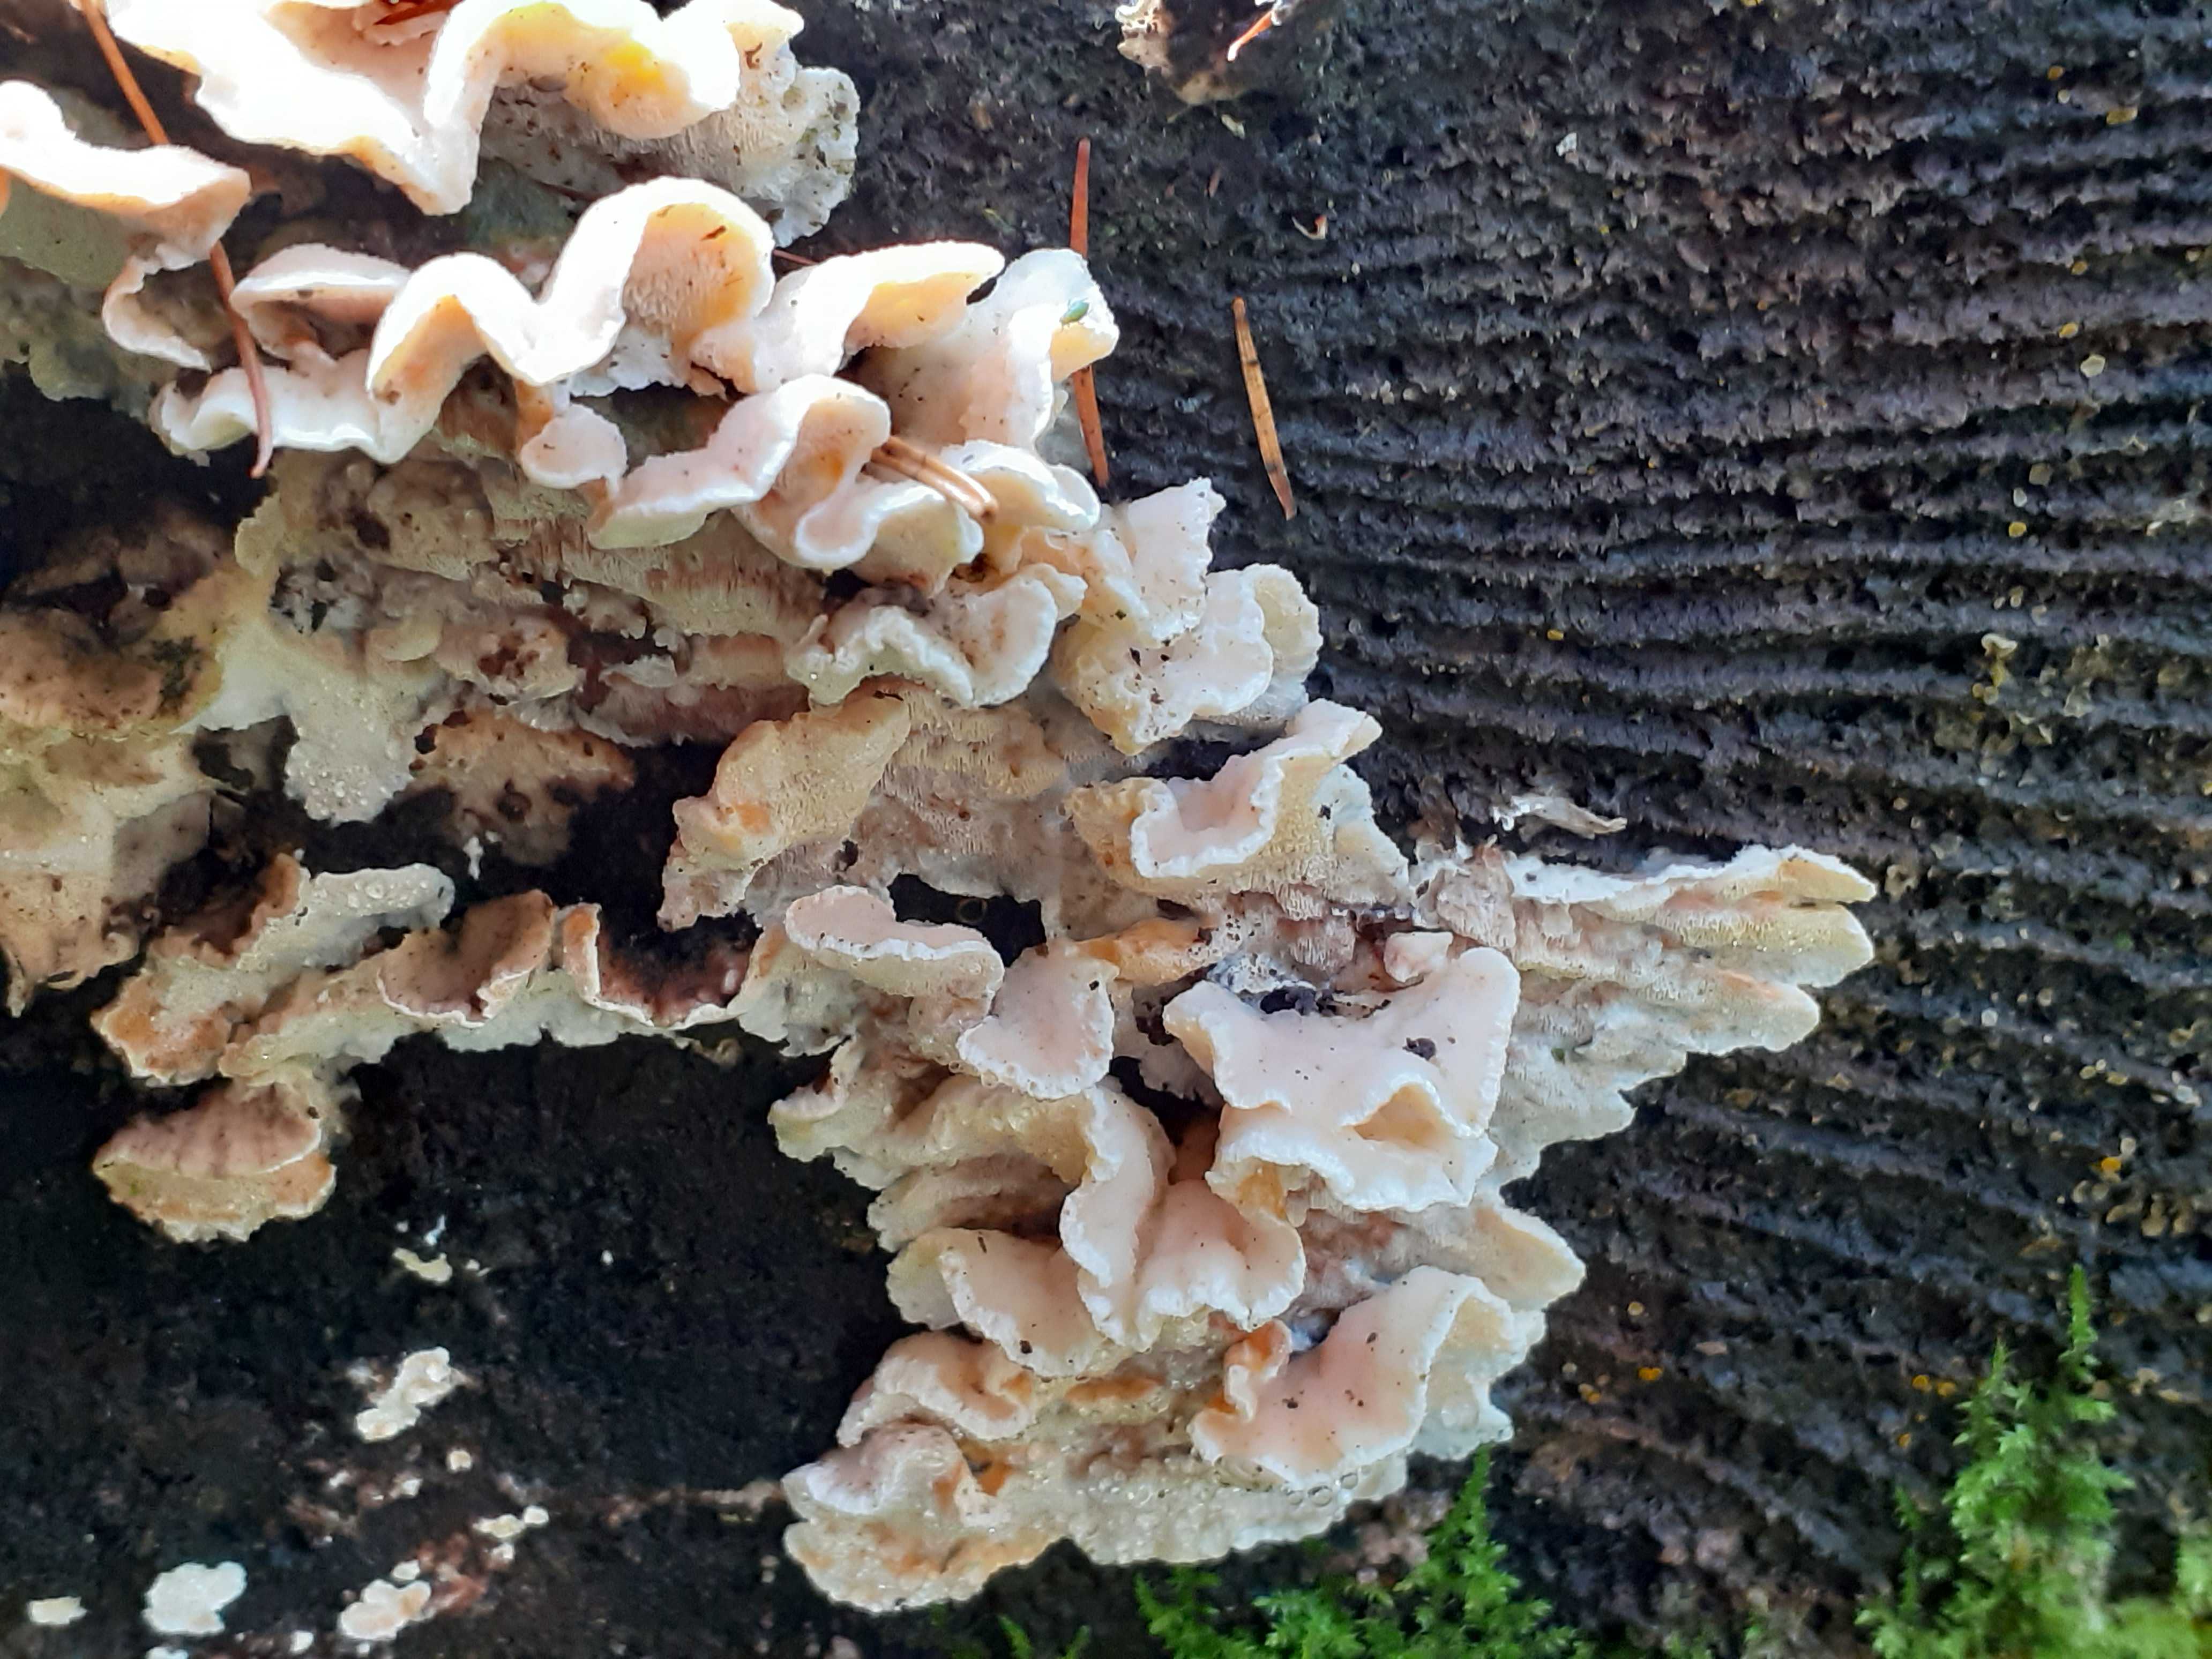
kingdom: Fungi
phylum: Basidiomycota
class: Agaricomycetes
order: Polyporales
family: Incrustoporiaceae
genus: Skeletocutis
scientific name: Skeletocutis amorpha
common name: orange krystalporesvamp
